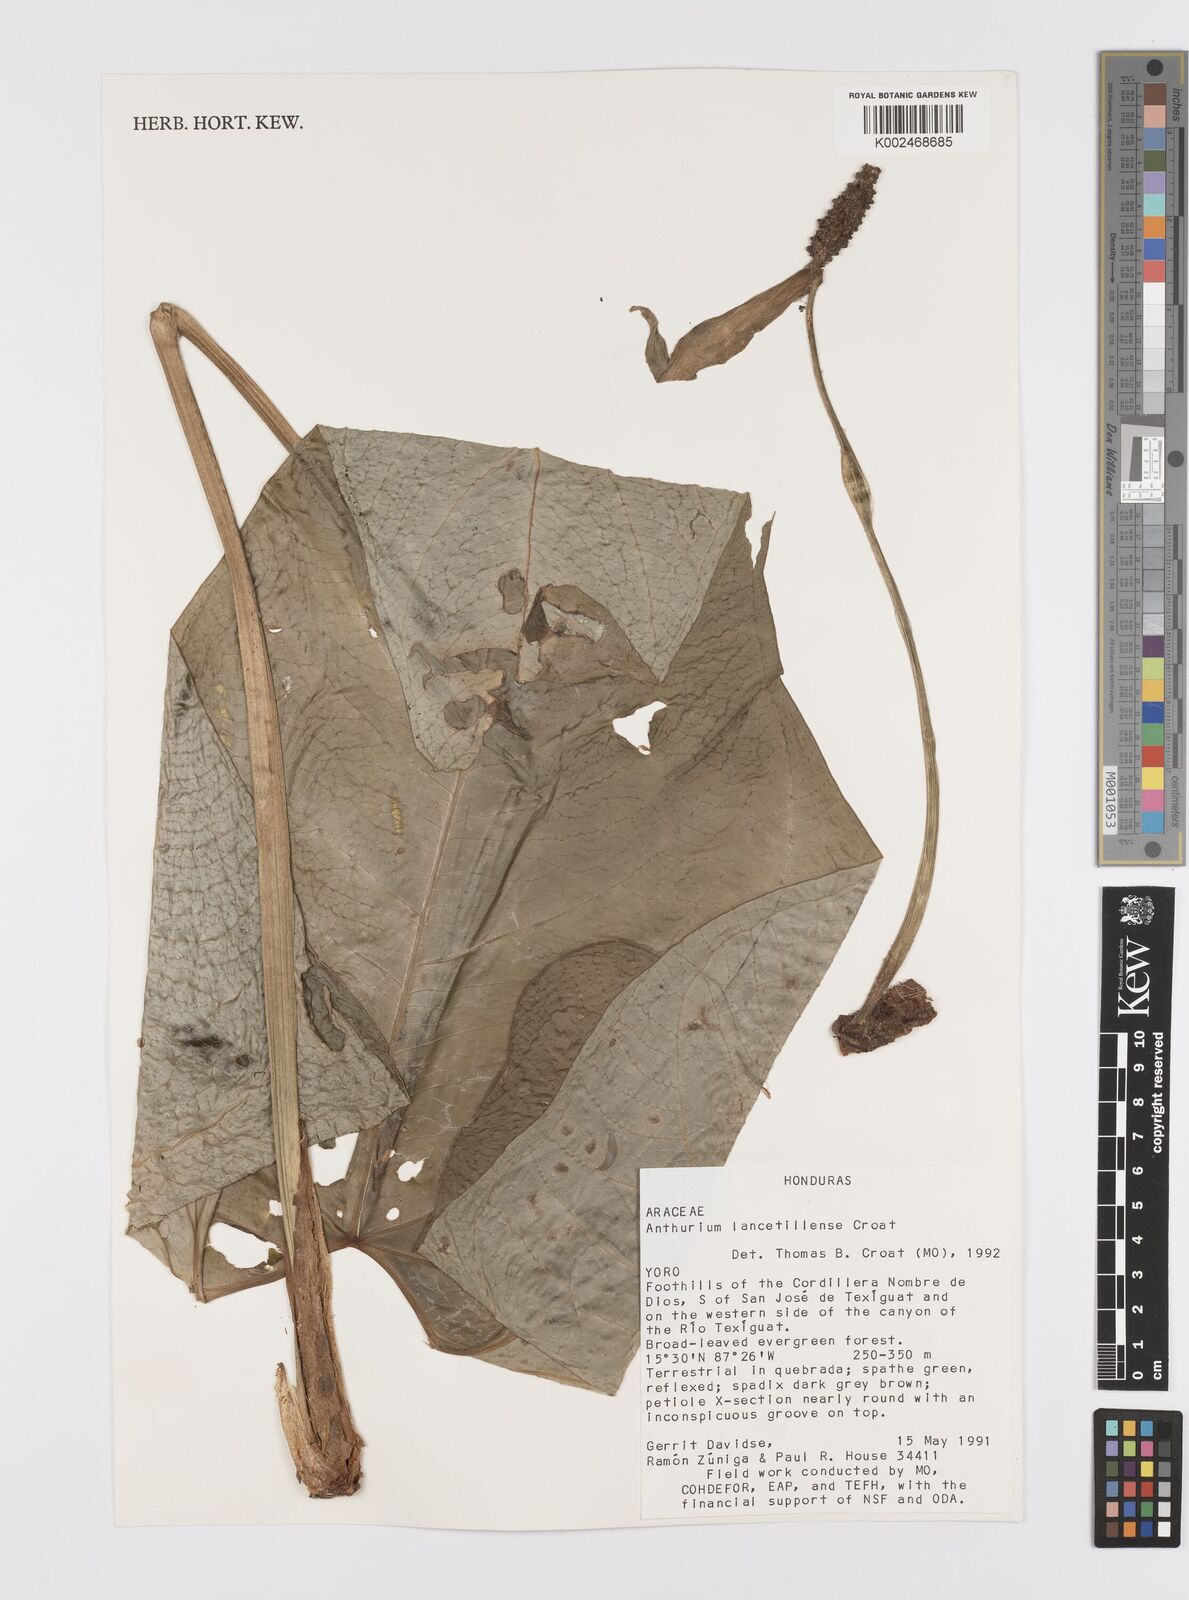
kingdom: Plantae
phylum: Tracheophyta
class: Liliopsida
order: Alismatales
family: Araceae
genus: Anthurium
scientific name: Anthurium lancetillense
